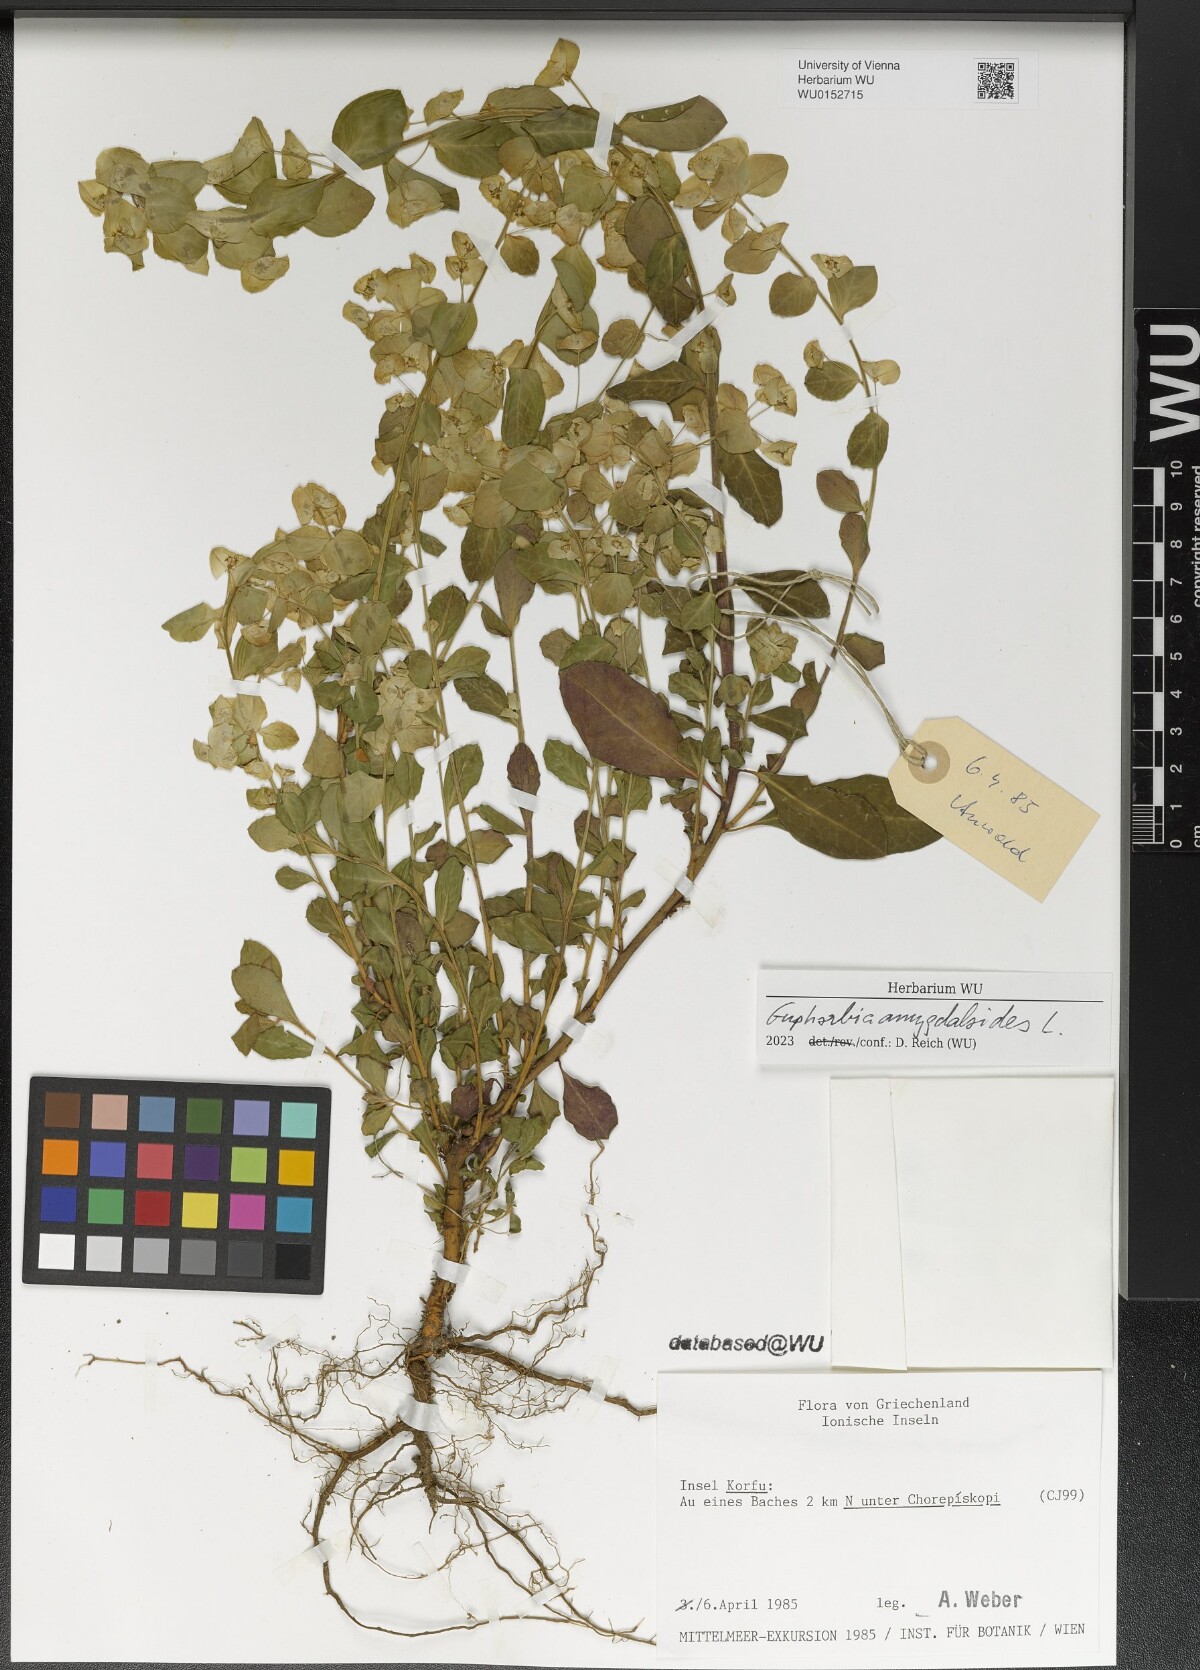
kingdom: Plantae
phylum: Tracheophyta
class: Magnoliopsida
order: Malpighiales
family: Euphorbiaceae
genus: Euphorbia
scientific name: Euphorbia amygdaloides
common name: Wood spurge
